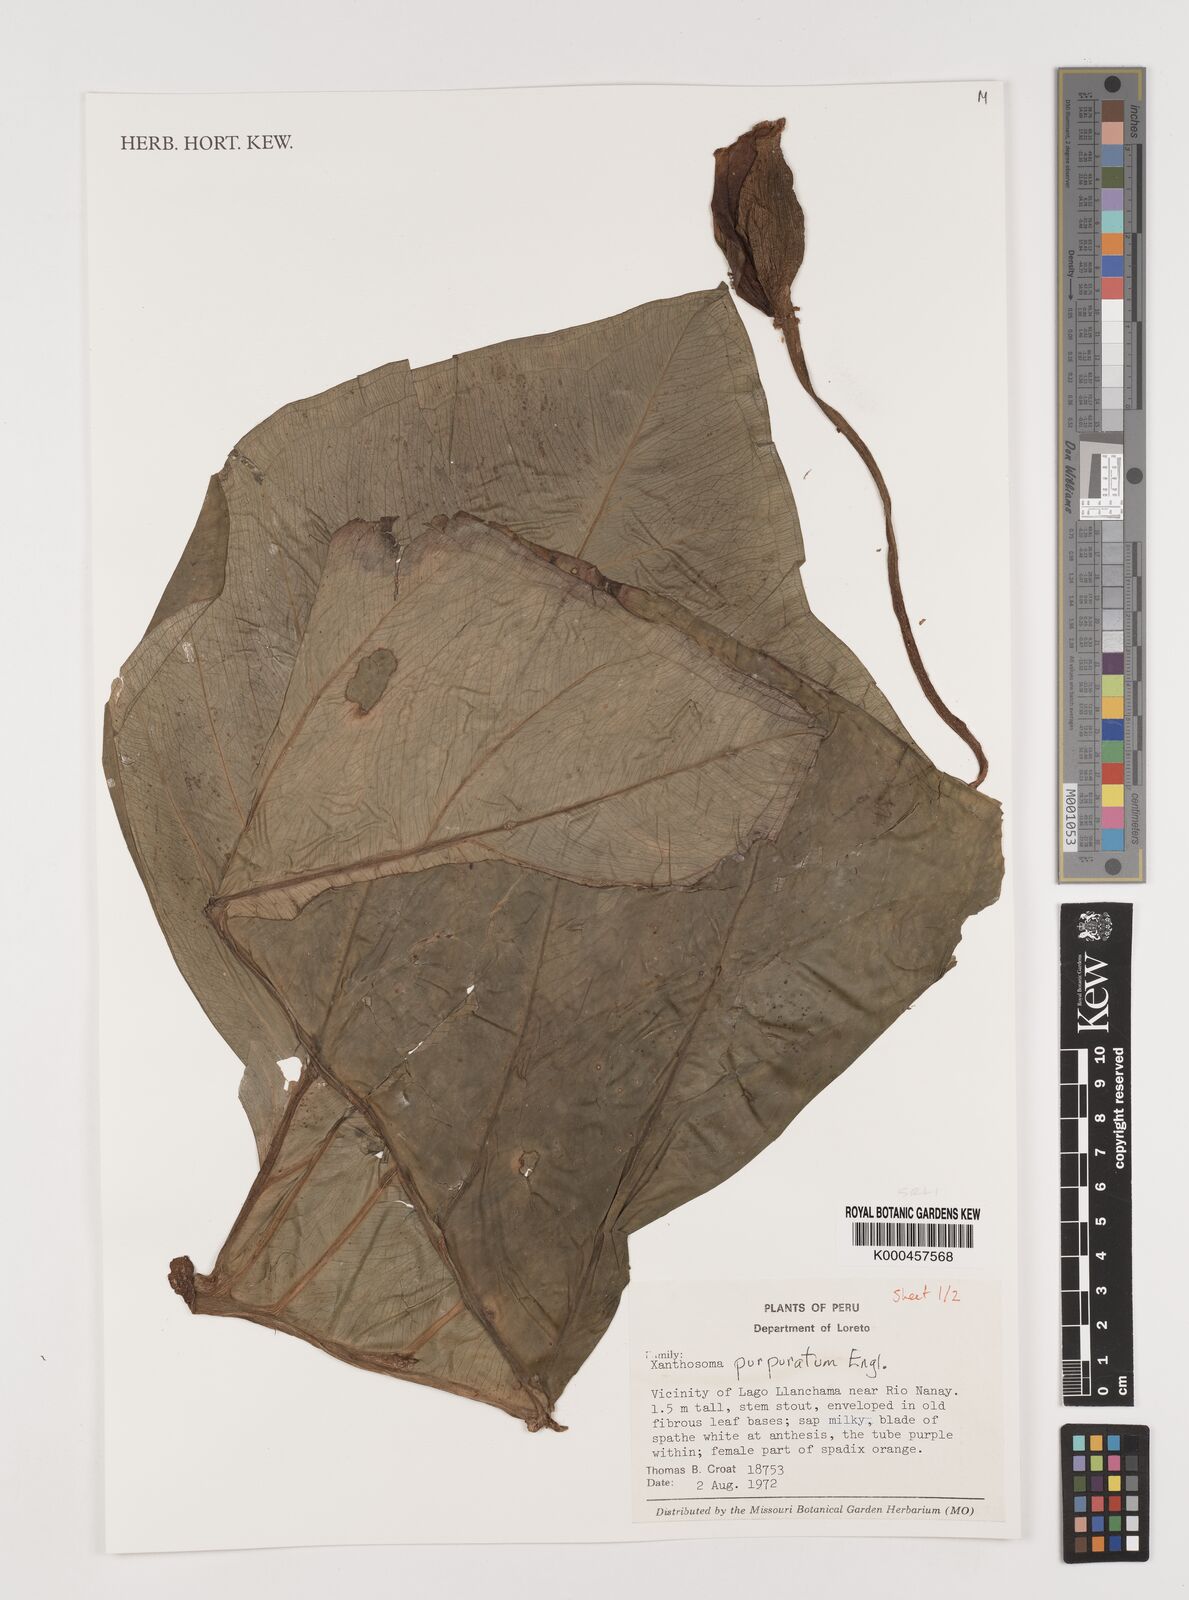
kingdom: Plantae
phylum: Tracheophyta
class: Liliopsida
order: Alismatales
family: Araceae
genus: Xanthosoma
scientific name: Xanthosoma hylaeae
